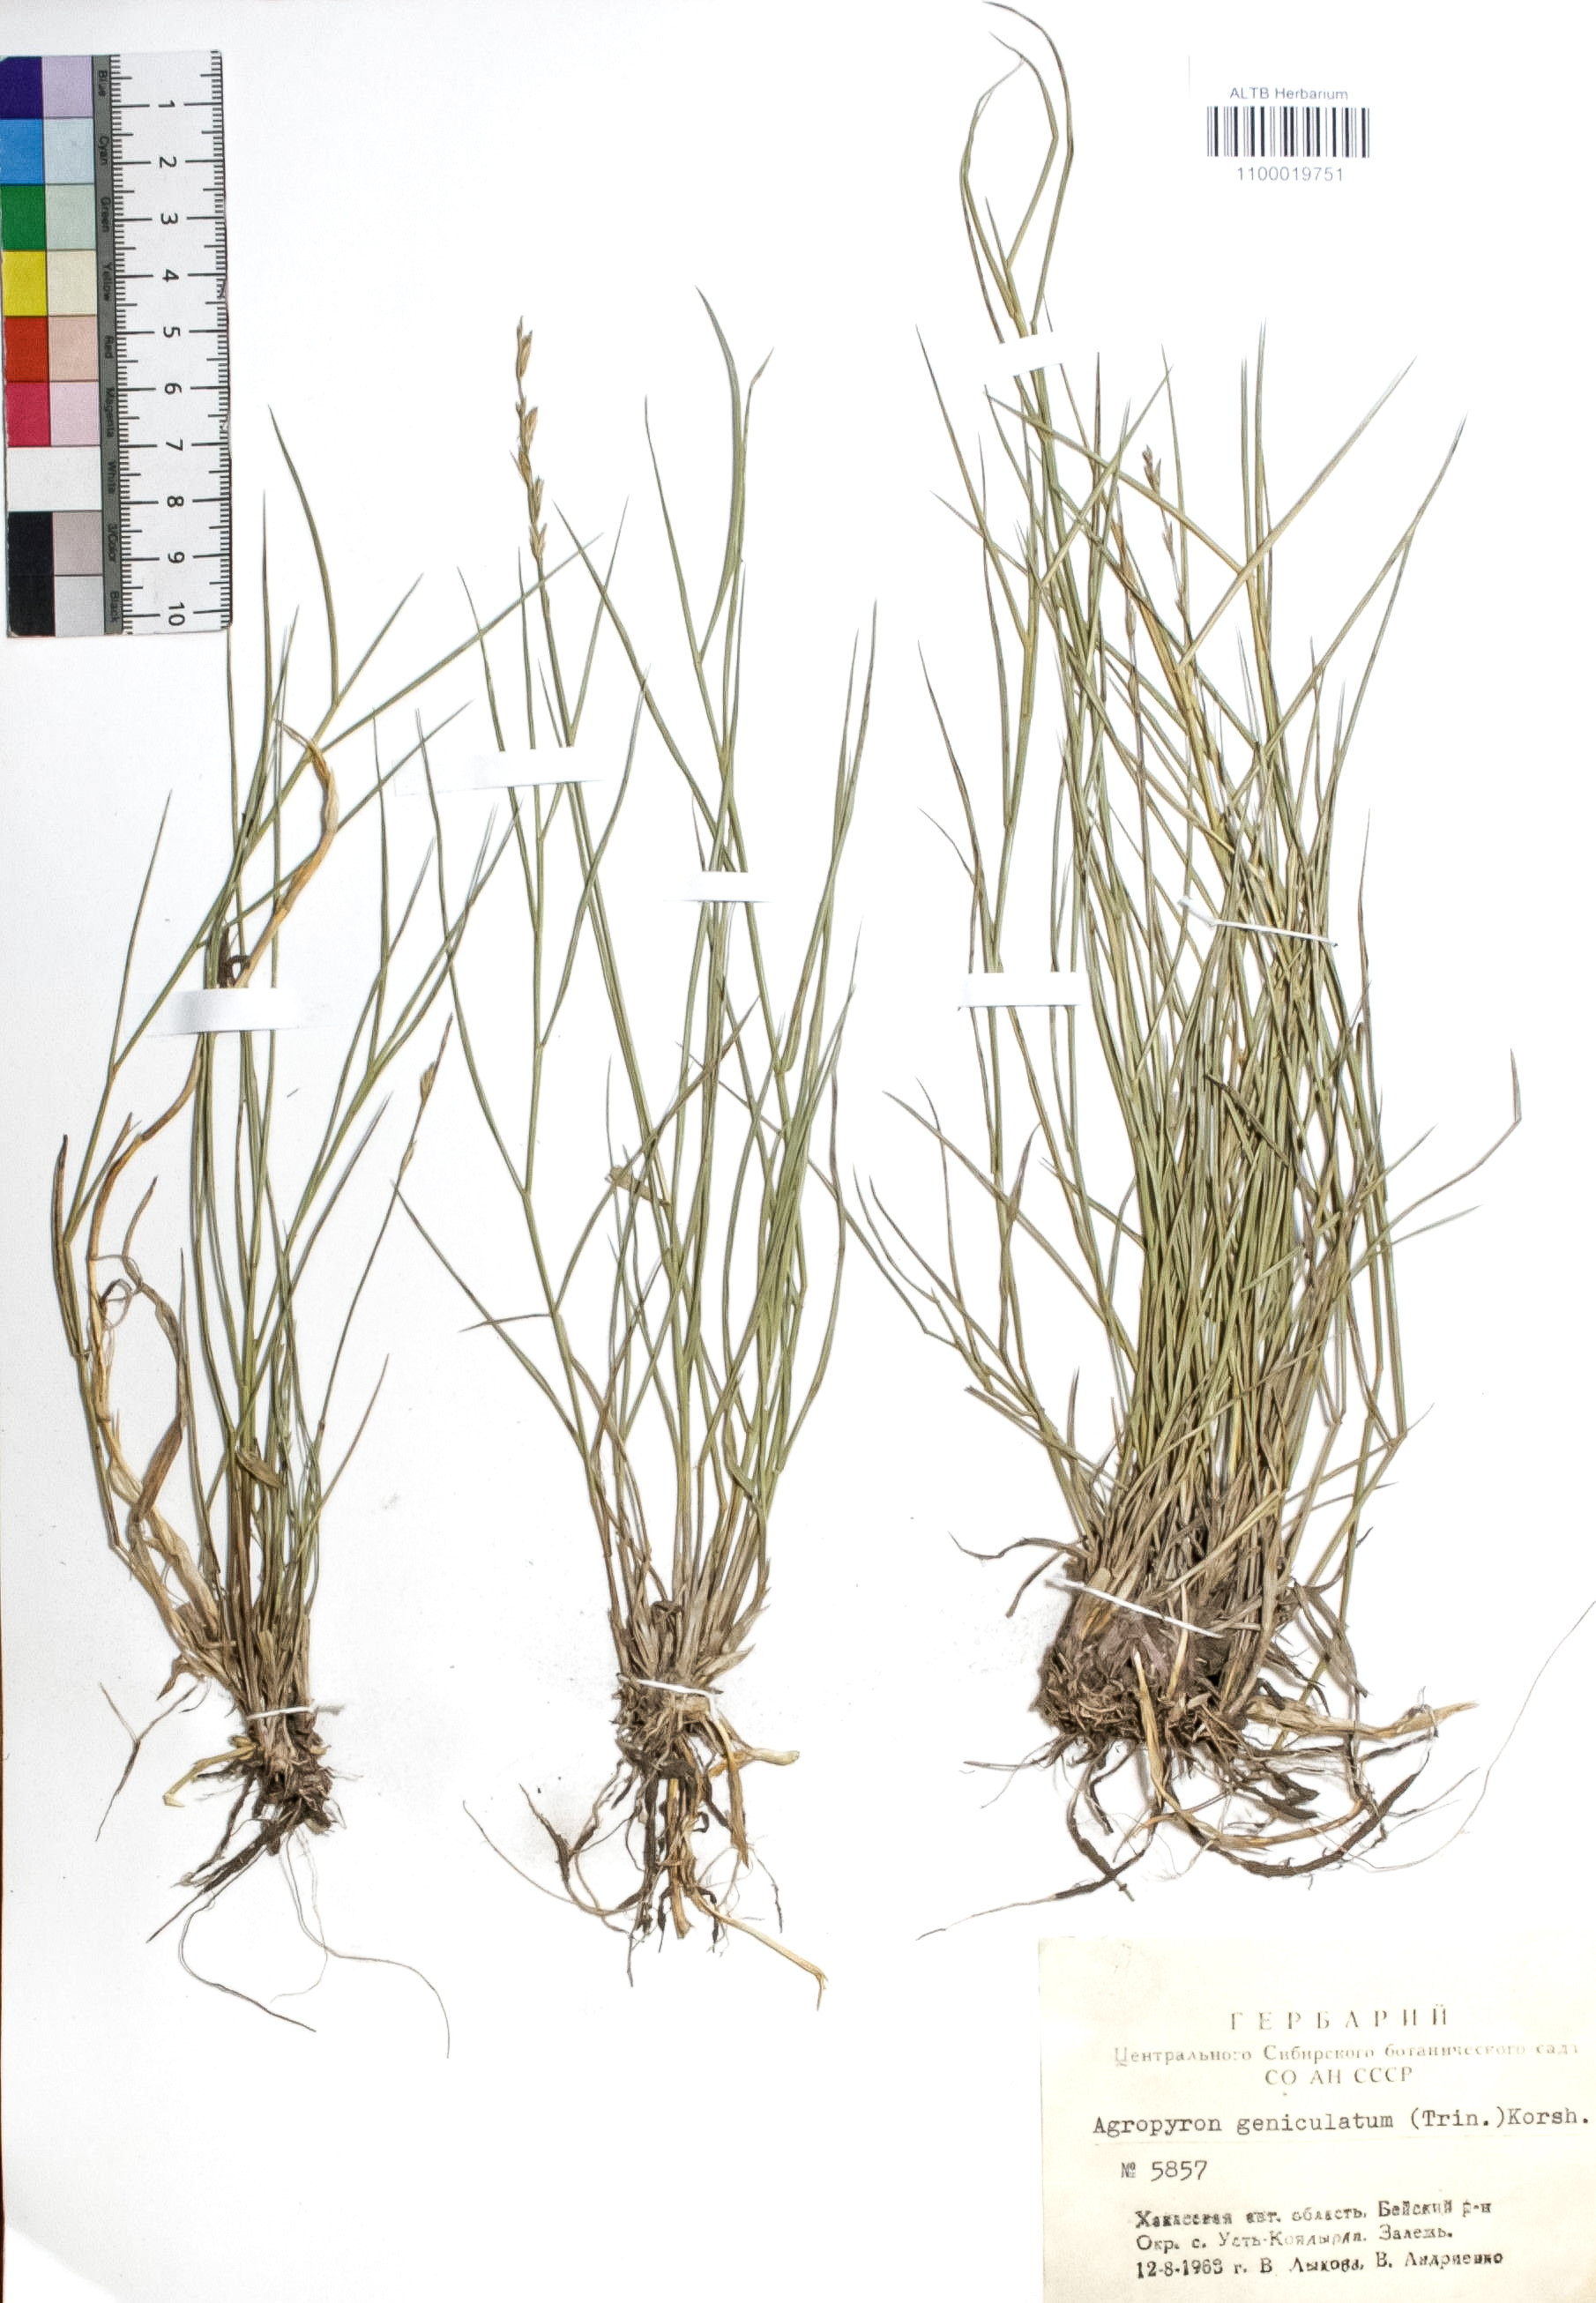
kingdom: Plantae
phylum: Tracheophyta
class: Liliopsida
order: Poales
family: Poaceae
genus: Pseudoroegneria
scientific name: Pseudoroegneria geniculata
